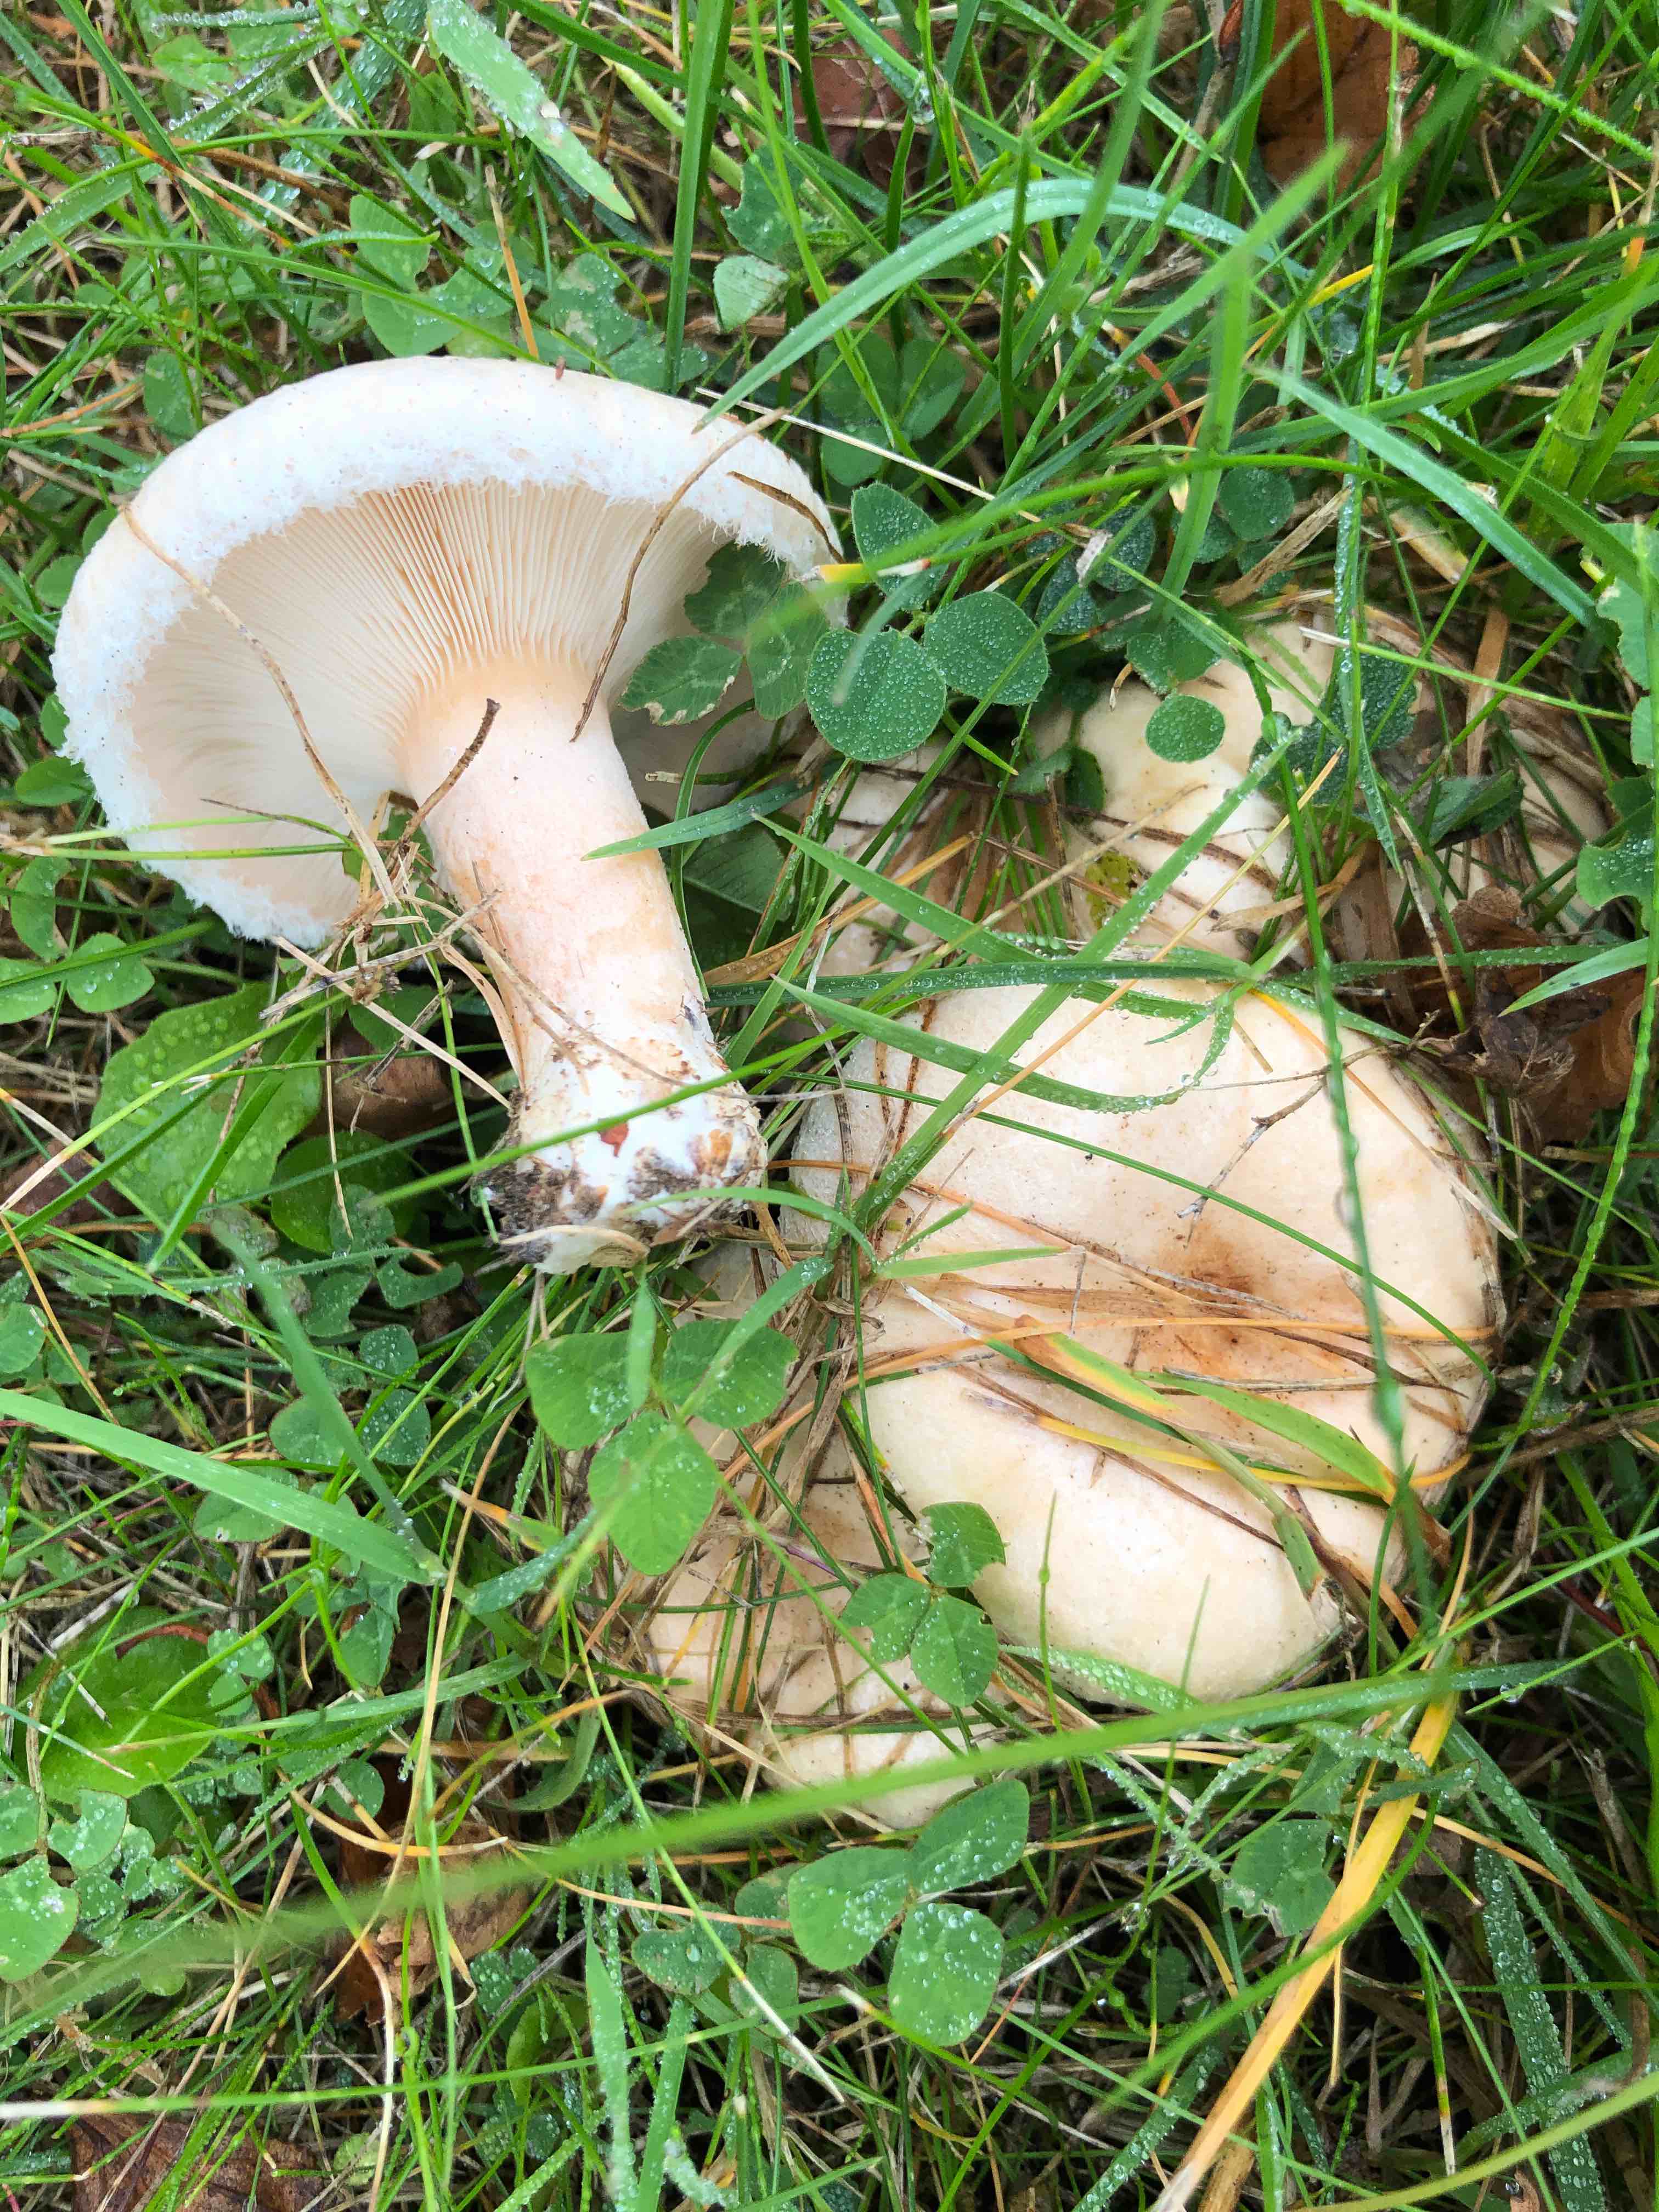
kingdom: Fungi
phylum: Basidiomycota
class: Agaricomycetes
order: Russulales
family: Russulaceae
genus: Lactarius
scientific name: Lactarius pubescens
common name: dunet mælkehat
